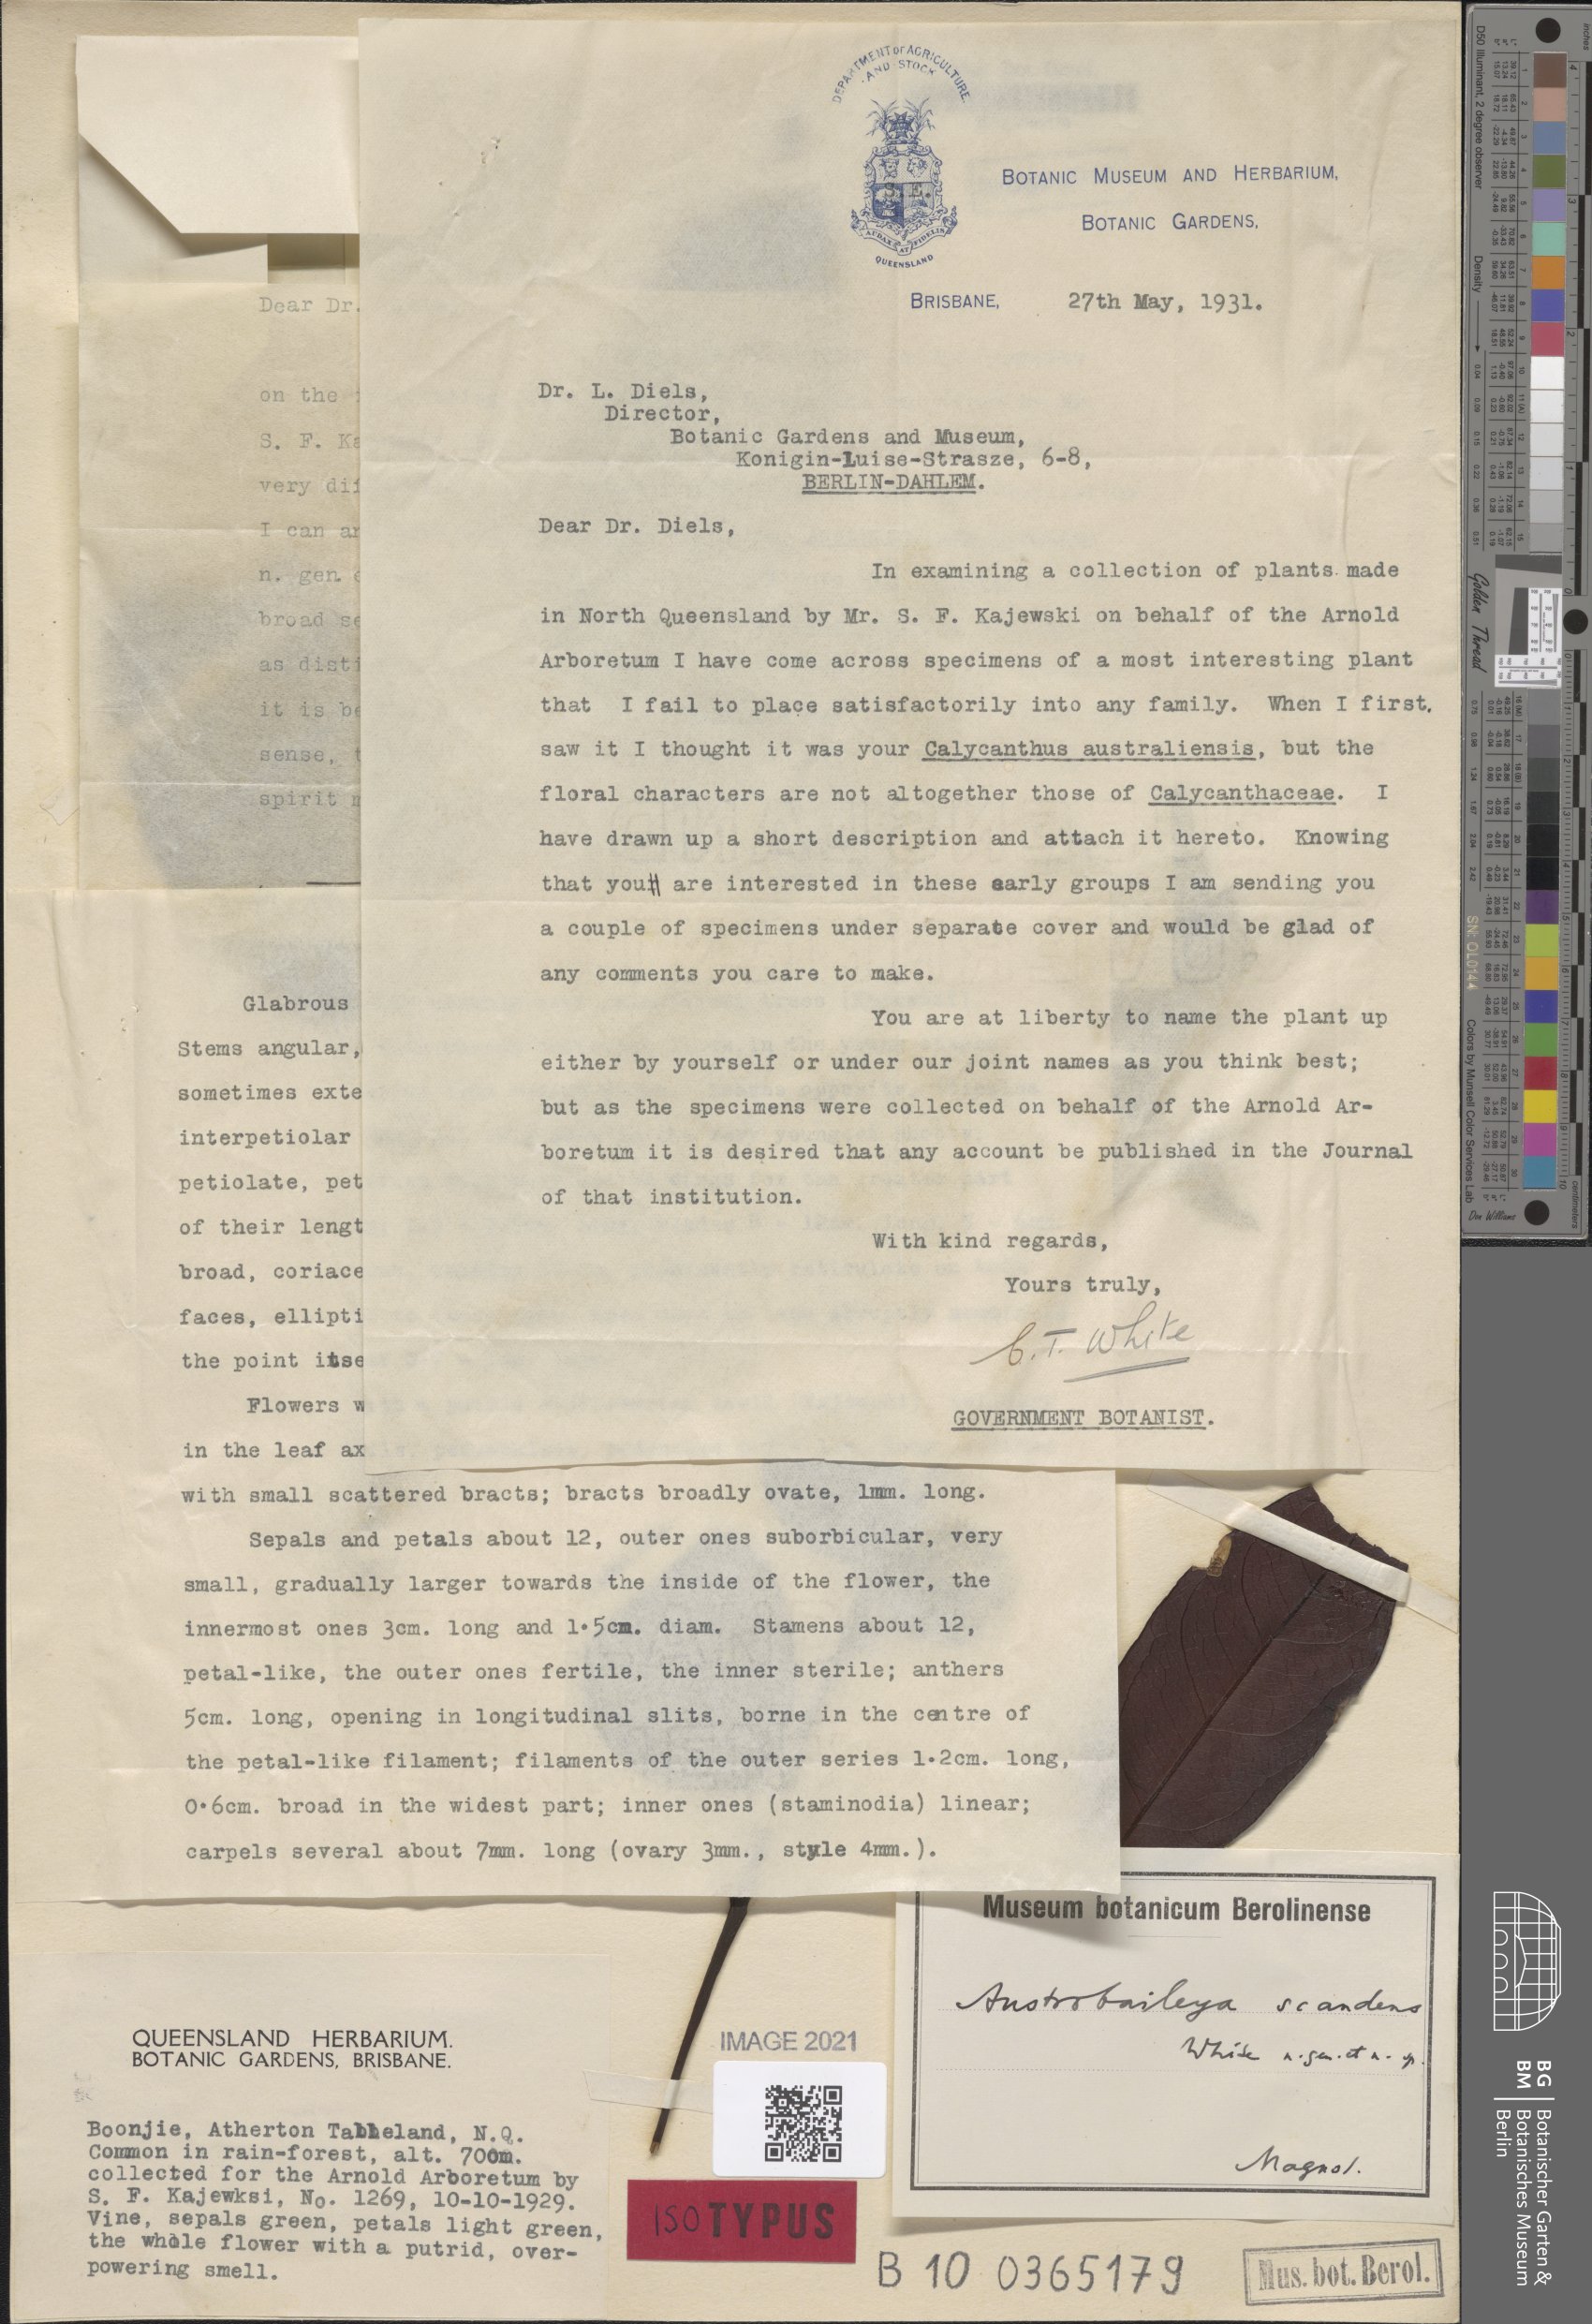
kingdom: Plantae
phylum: Tracheophyta
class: Magnoliopsida
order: Austrobaileyales
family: Austrobaileyaceae
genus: Austrobaileya
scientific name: Austrobaileya scandens
